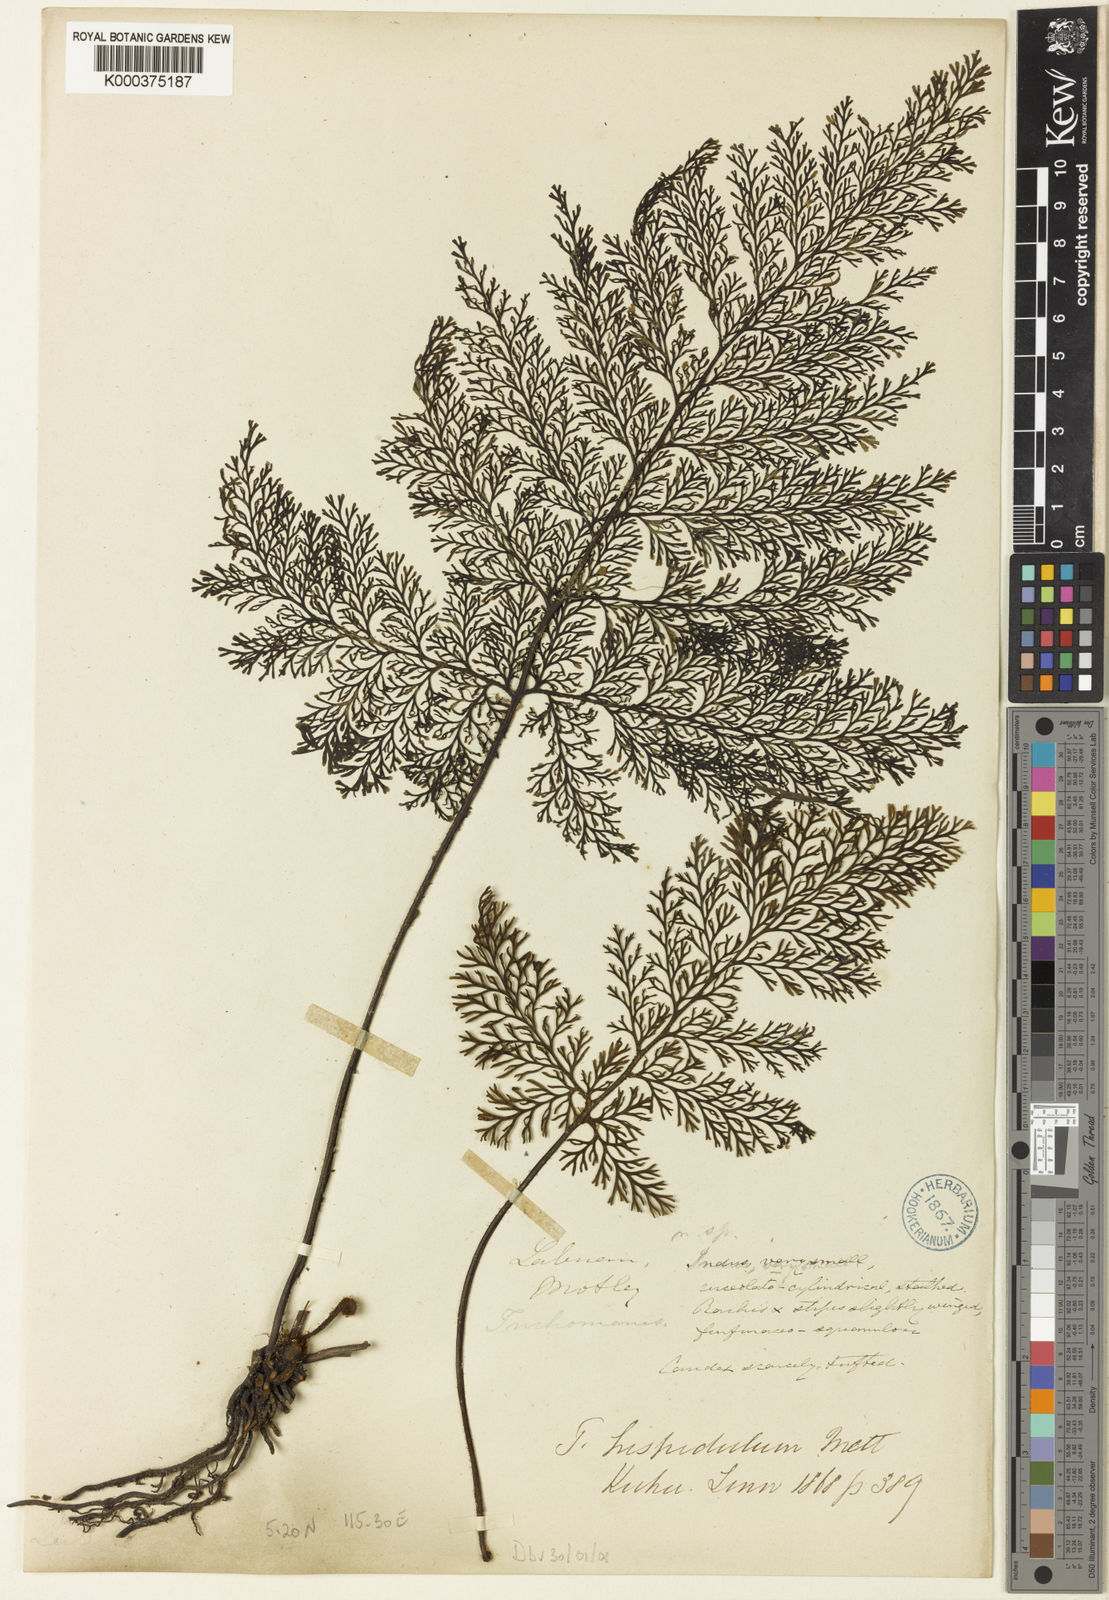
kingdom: Plantae
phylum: Tracheophyta
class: Polypodiopsida
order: Hymenophyllales
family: Hymenophyllaceae
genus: Trichomanes
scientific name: Trichomanes curranii
